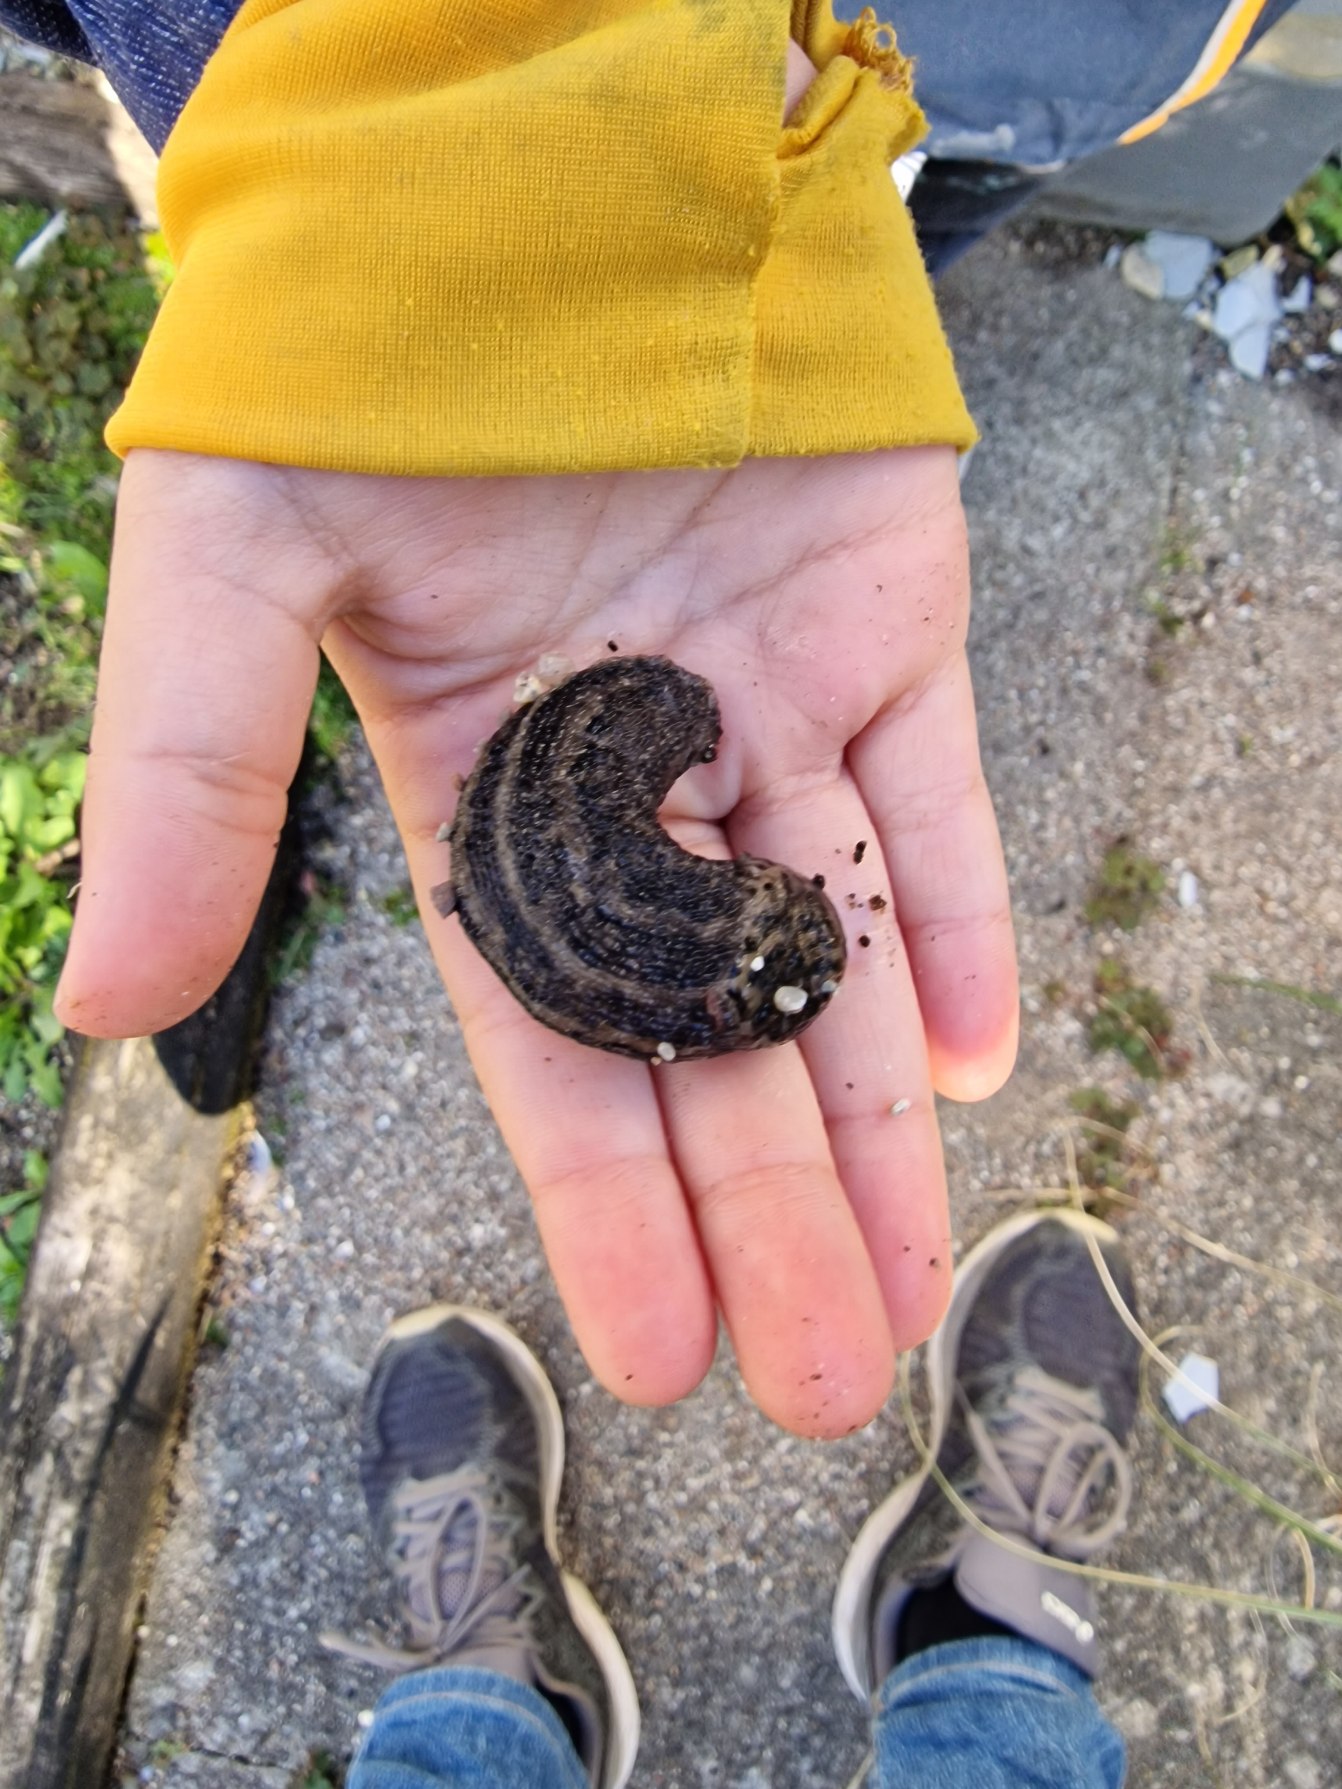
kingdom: Animalia
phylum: Mollusca
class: Gastropoda
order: Stylommatophora
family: Limacidae
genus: Limax
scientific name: Limax maximus
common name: Pantersnegl
